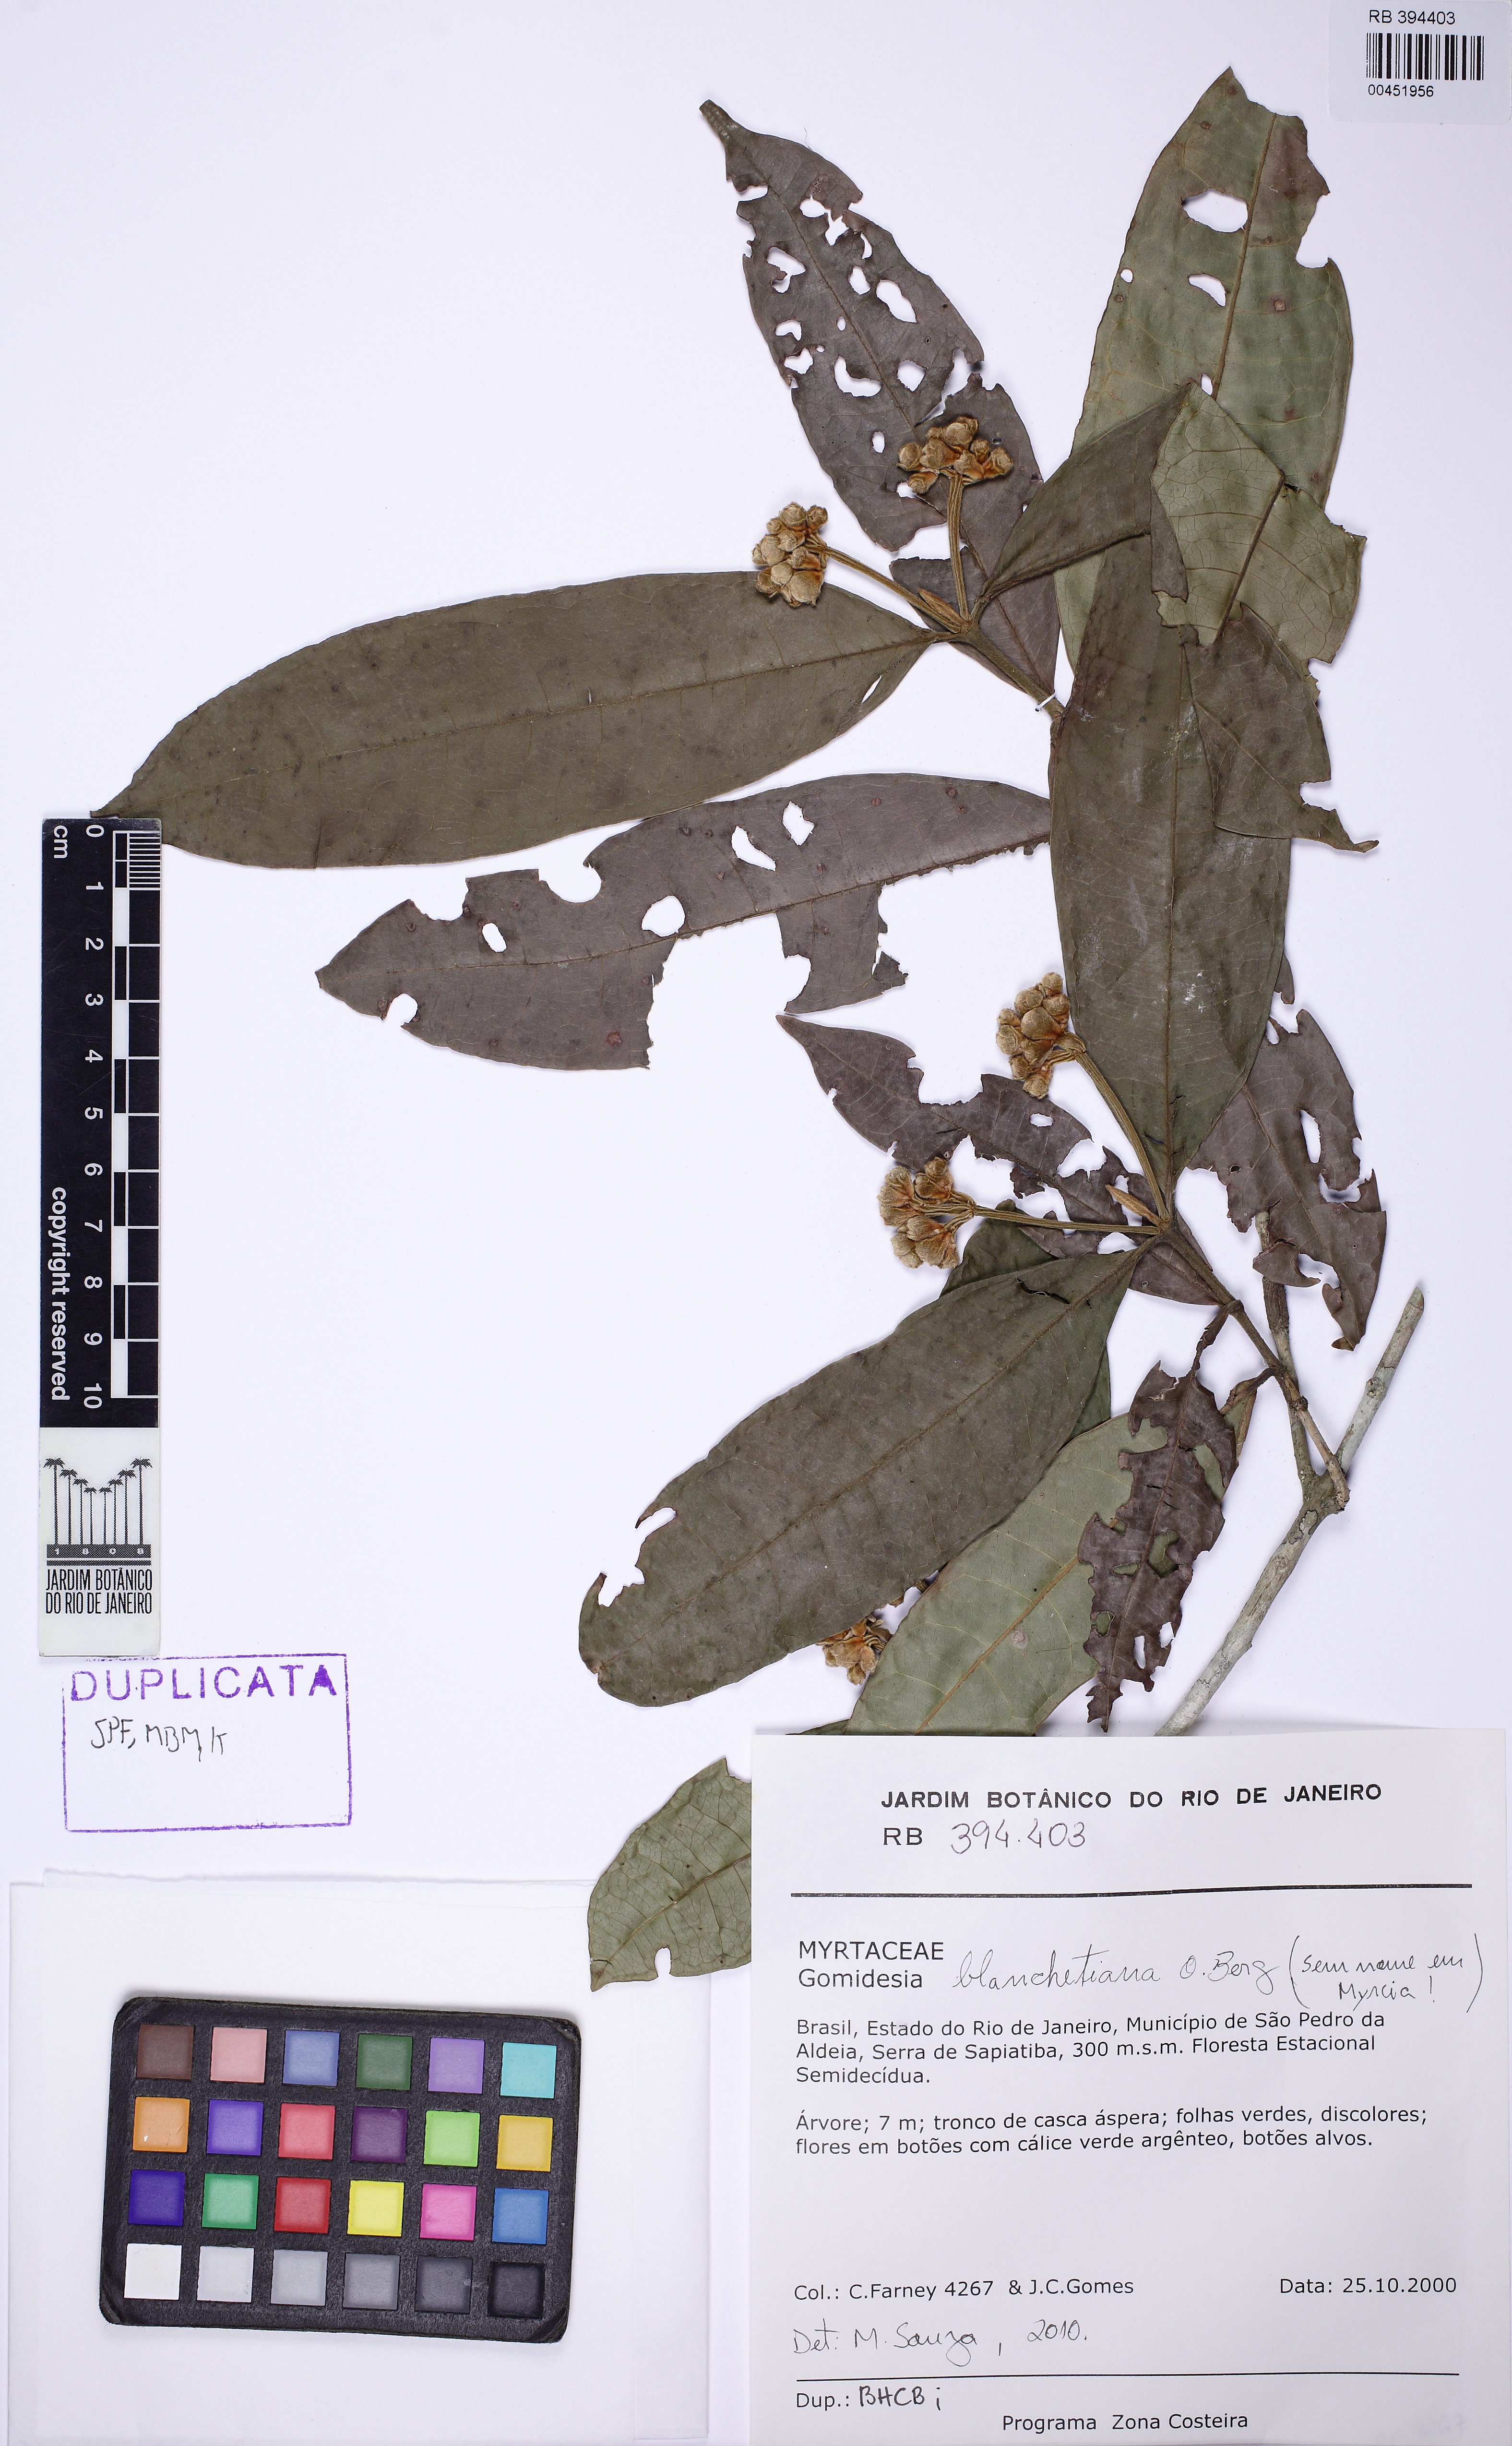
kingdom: Plantae
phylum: Tracheophyta
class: Magnoliopsida
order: Myrtales
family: Myrtaceae
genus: Myrcia
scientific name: Myrcia dolichopetala
